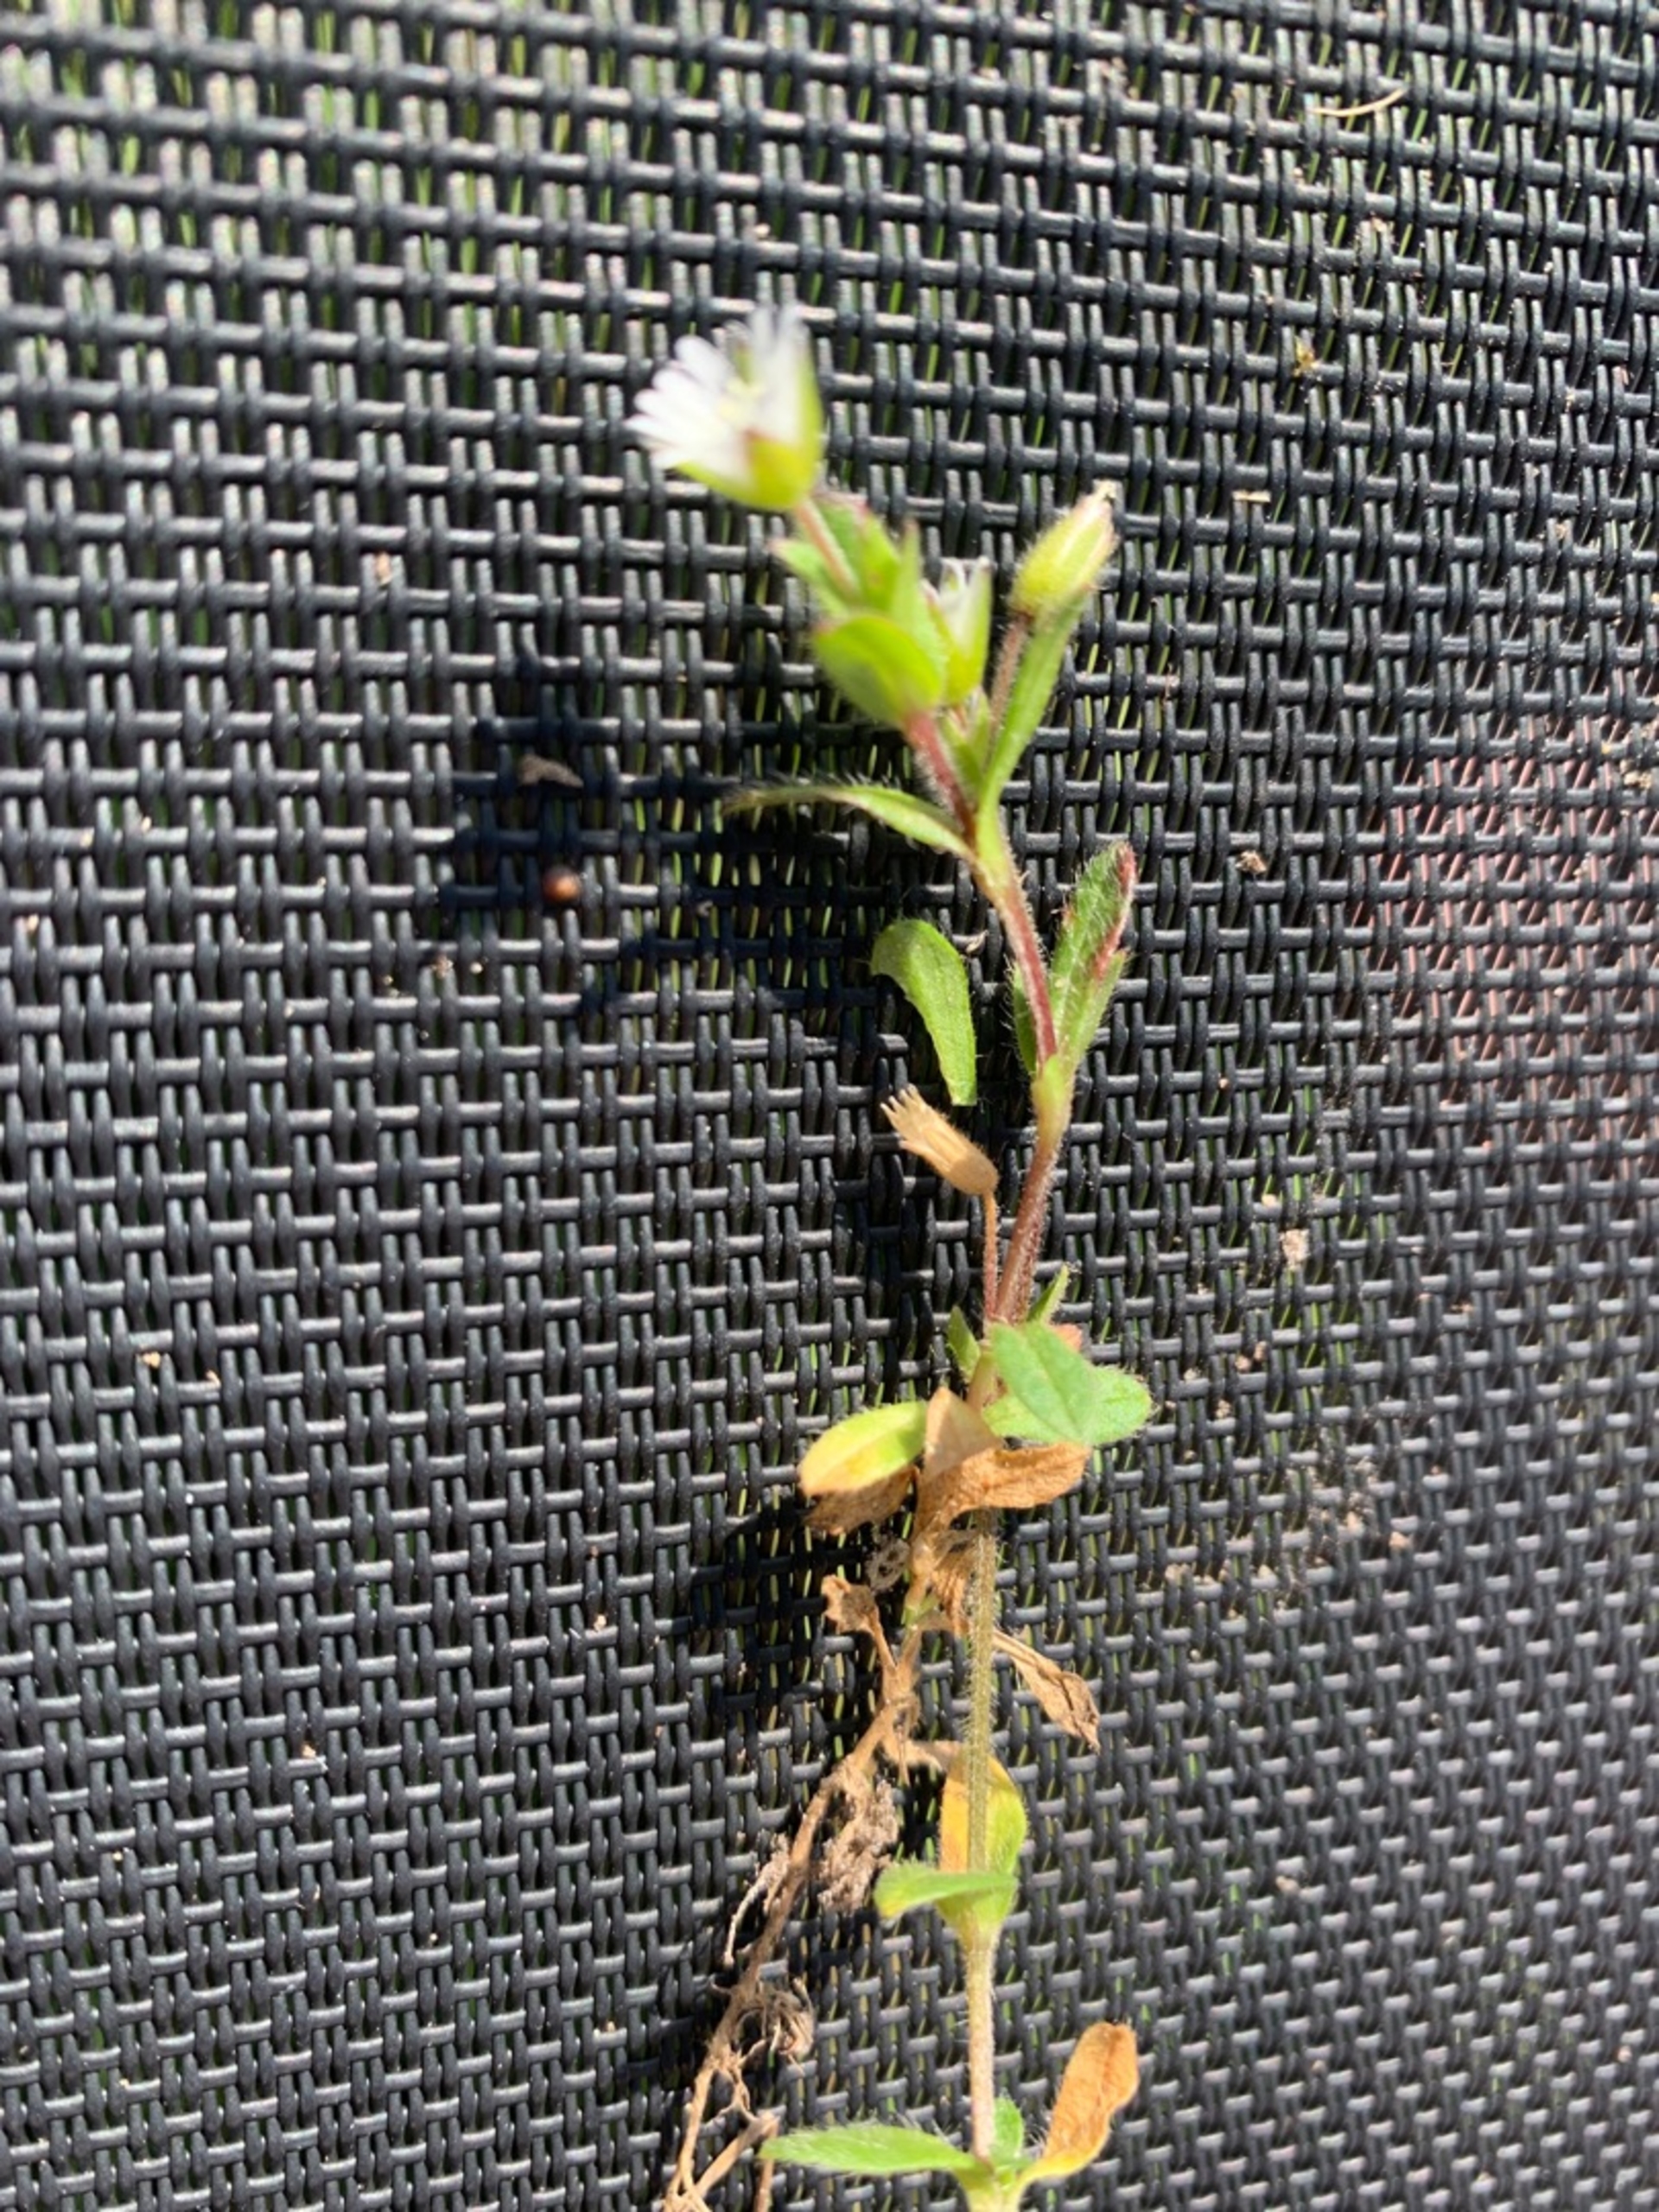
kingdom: Plantae
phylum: Tracheophyta
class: Magnoliopsida
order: Caryophyllales
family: Caryophyllaceae
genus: Cerastium
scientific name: Cerastium fontanum
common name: Almindelig hønsetarm
